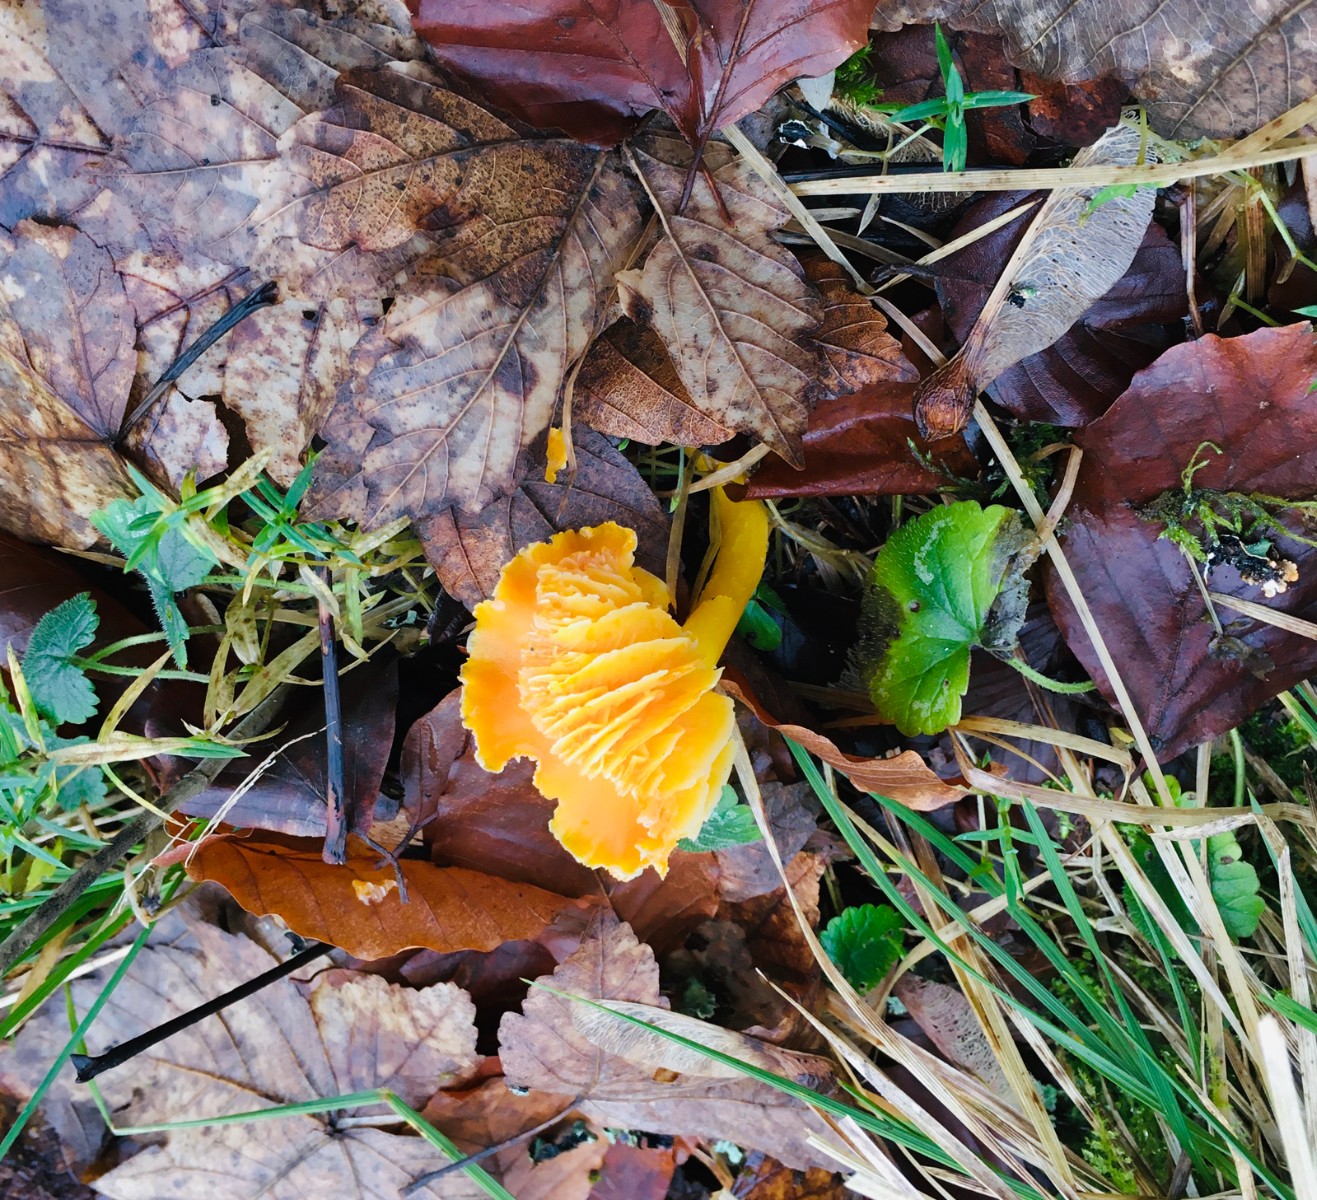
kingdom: Fungi
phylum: Basidiomycota
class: Agaricomycetes
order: Agaricales
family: Hygrophoraceae
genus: Hygrocybe
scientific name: Hygrocybe
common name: vokshat
